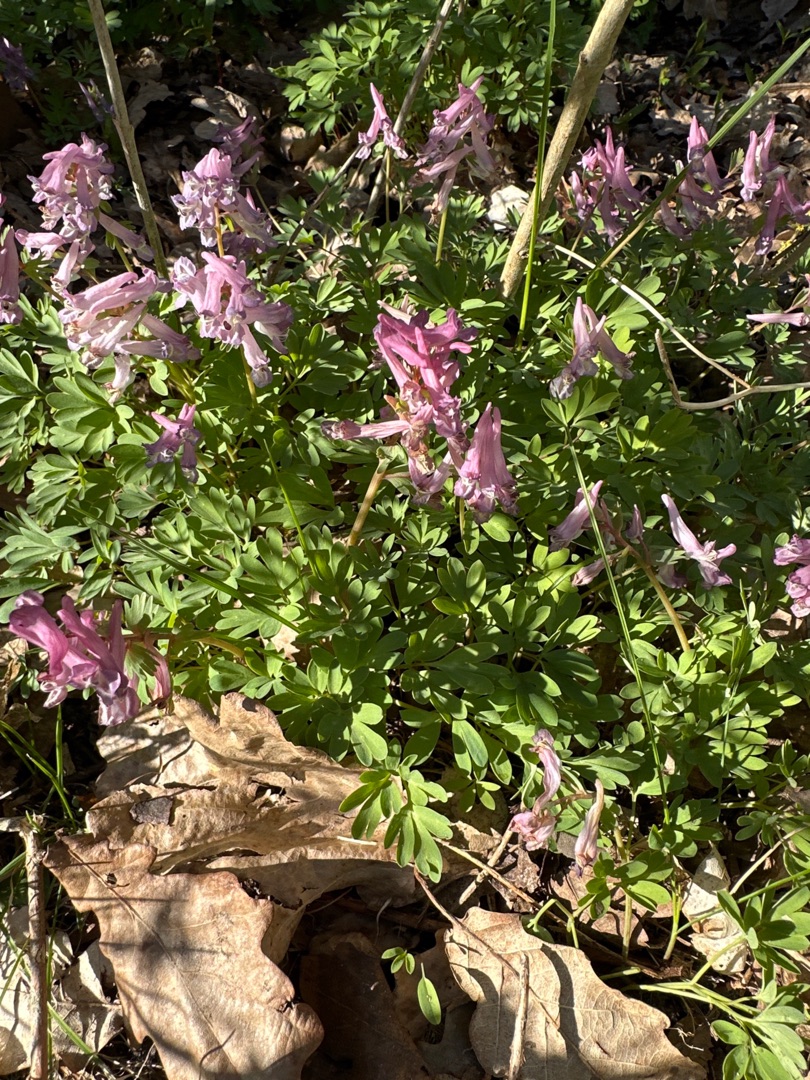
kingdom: Plantae
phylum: Tracheophyta
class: Magnoliopsida
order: Ranunculales
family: Papaveraceae
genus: Corydalis
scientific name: Corydalis solida
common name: Langstilket lærkespore
